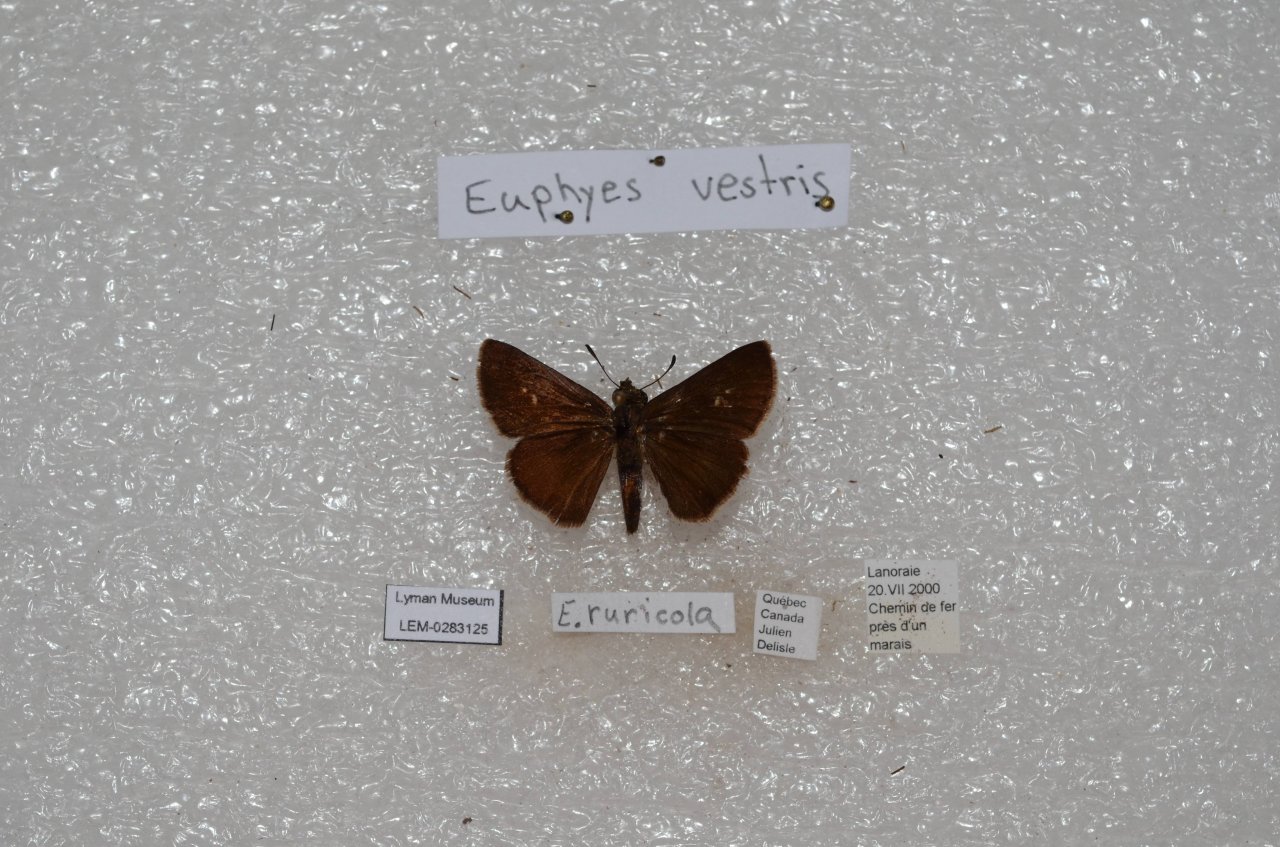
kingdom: Animalia
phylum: Arthropoda
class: Insecta
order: Lepidoptera
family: Hesperiidae
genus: Euphyes
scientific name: Euphyes vestris
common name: Dun Skipper
